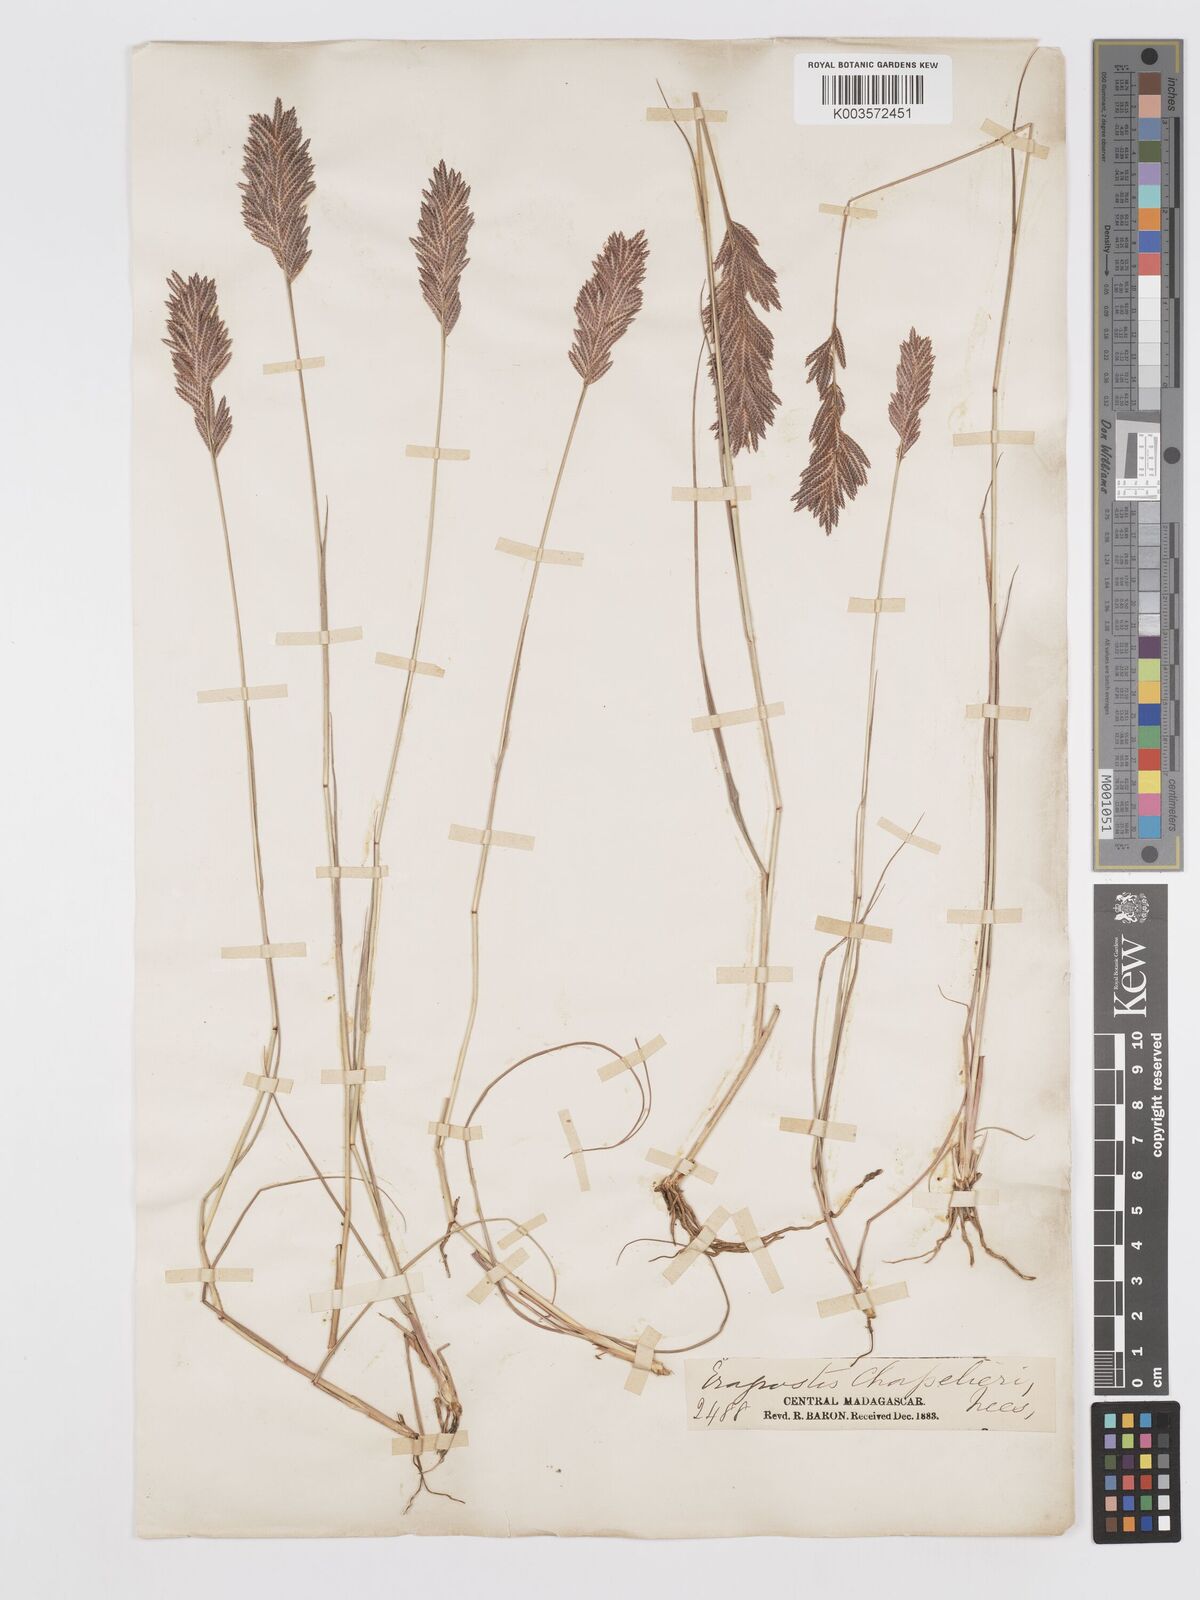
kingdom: Plantae
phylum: Tracheophyta
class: Liliopsida
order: Poales
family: Poaceae
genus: Eragrostis
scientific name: Eragrostis chapelieri
